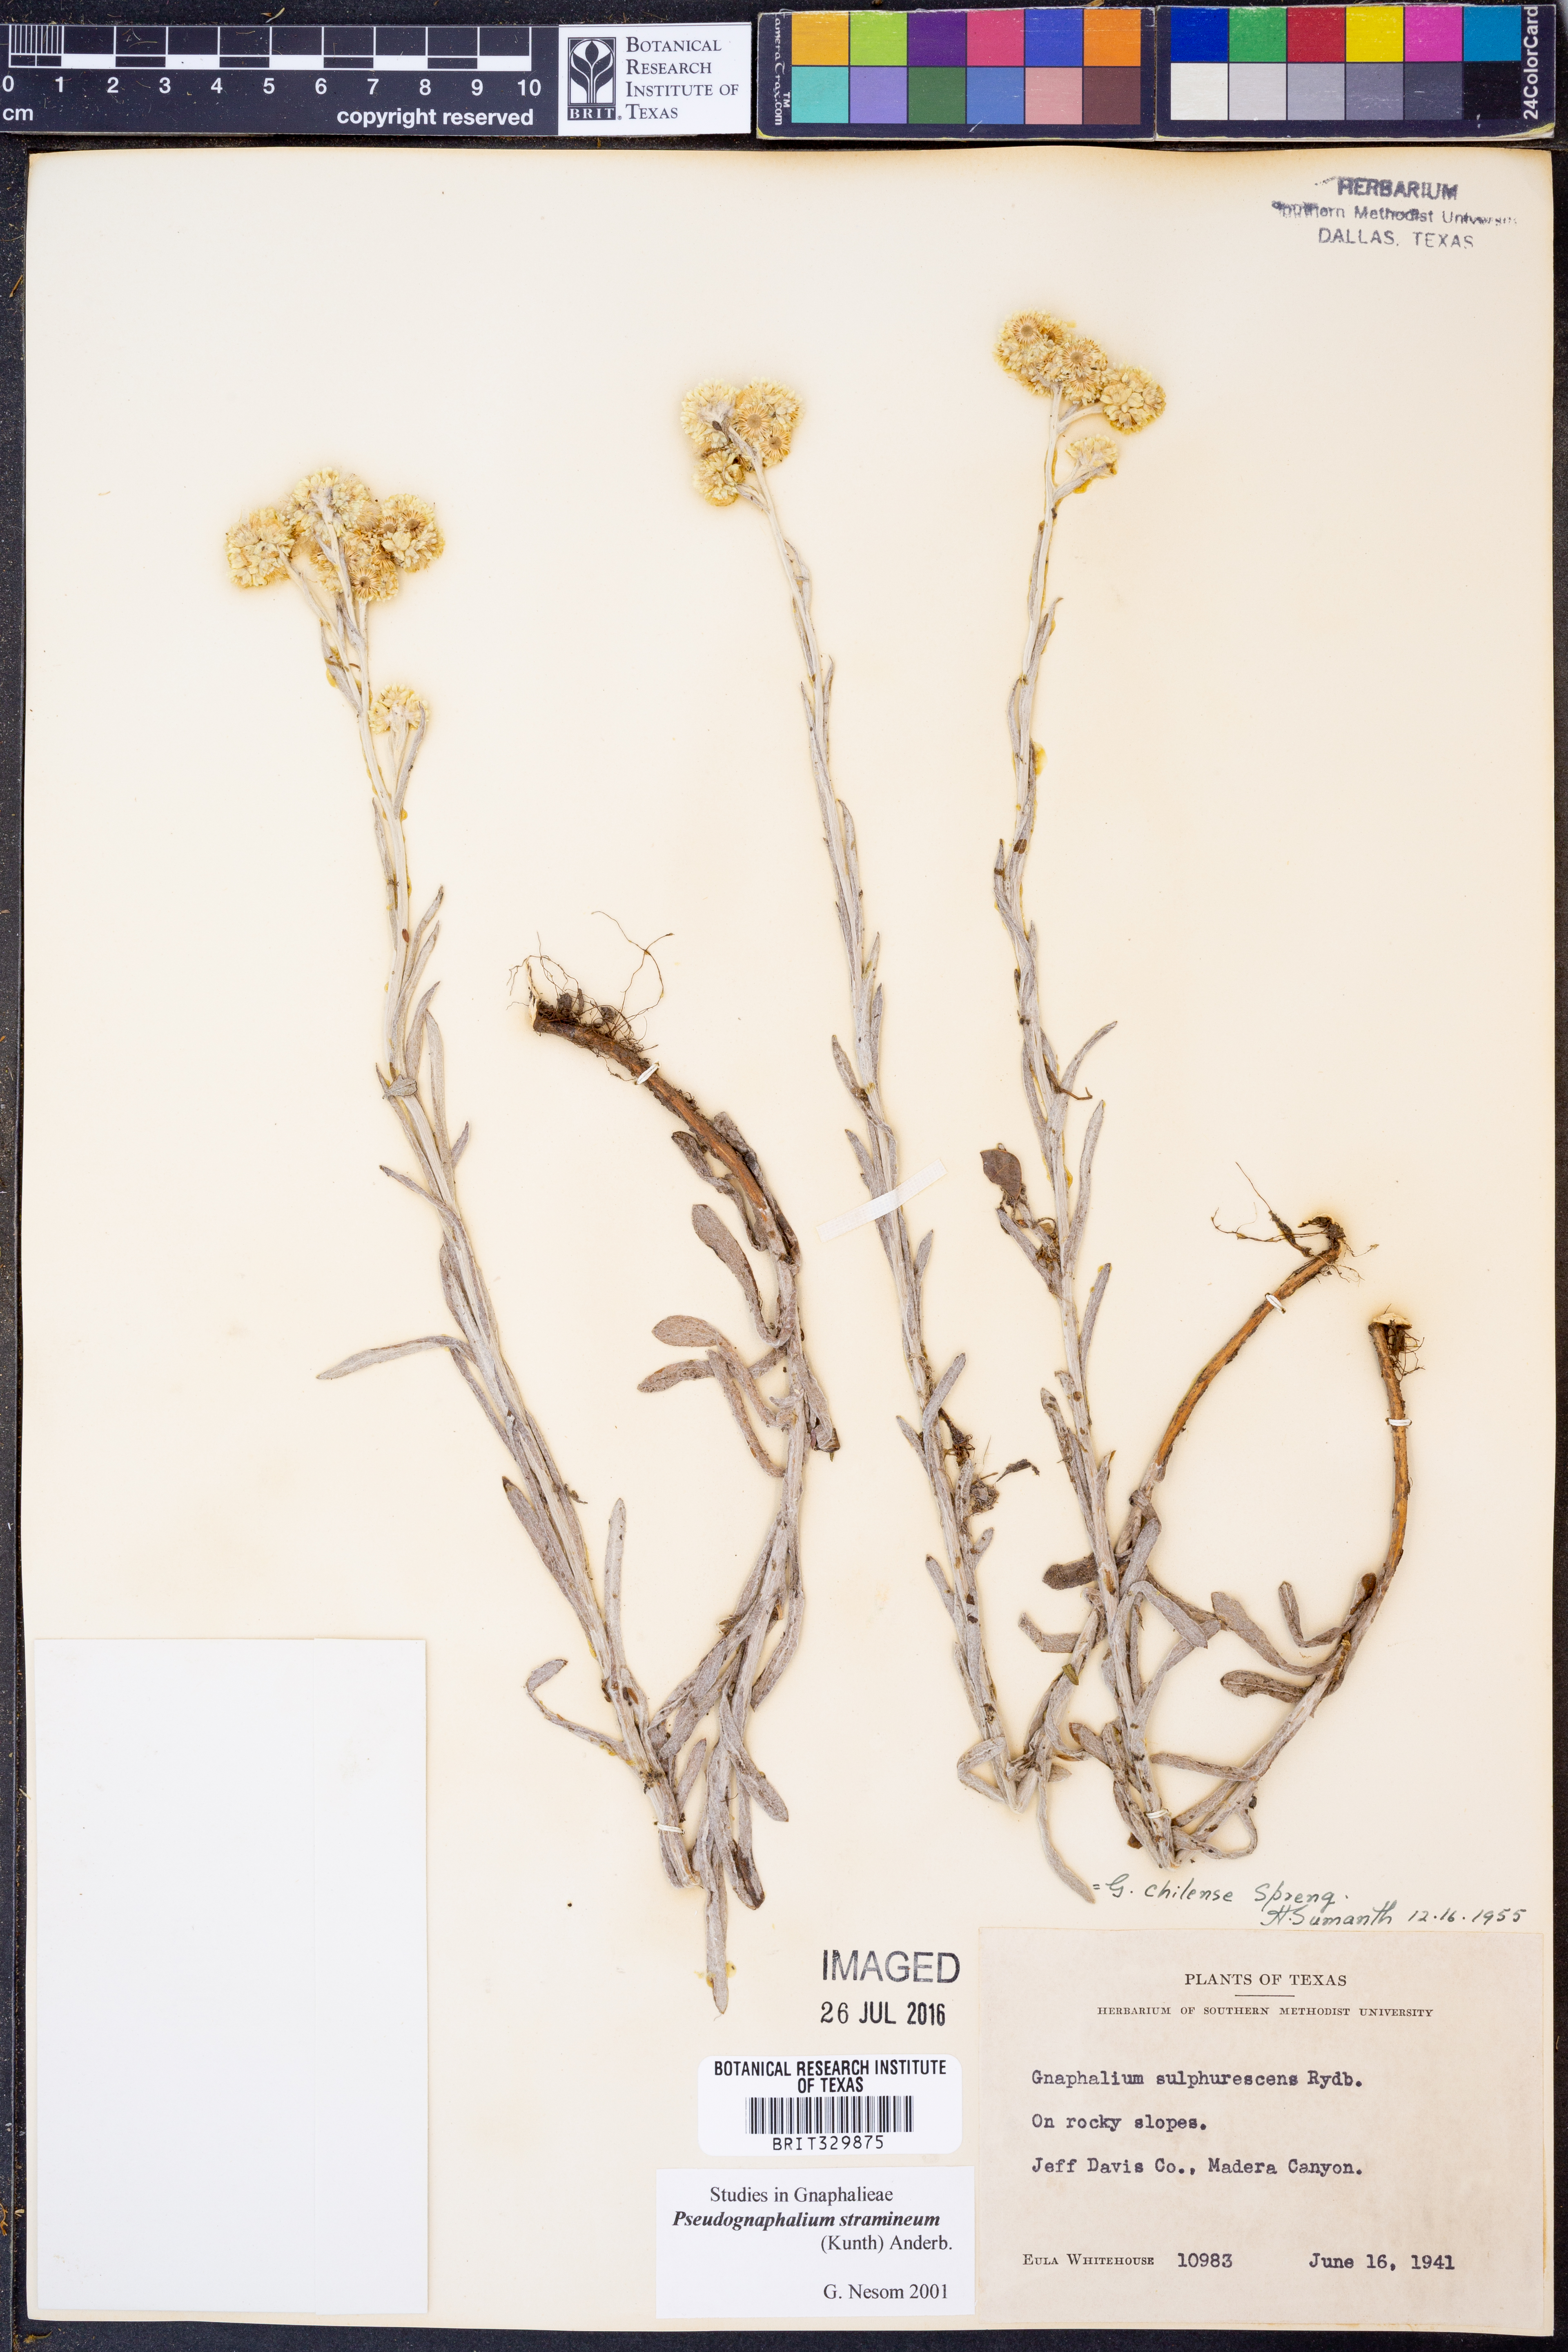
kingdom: Plantae
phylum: Tracheophyta
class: Magnoliopsida
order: Asterales
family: Asteraceae
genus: Pseudognaphalium
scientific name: Pseudognaphalium stramineum
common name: Cotton-batting-plant
